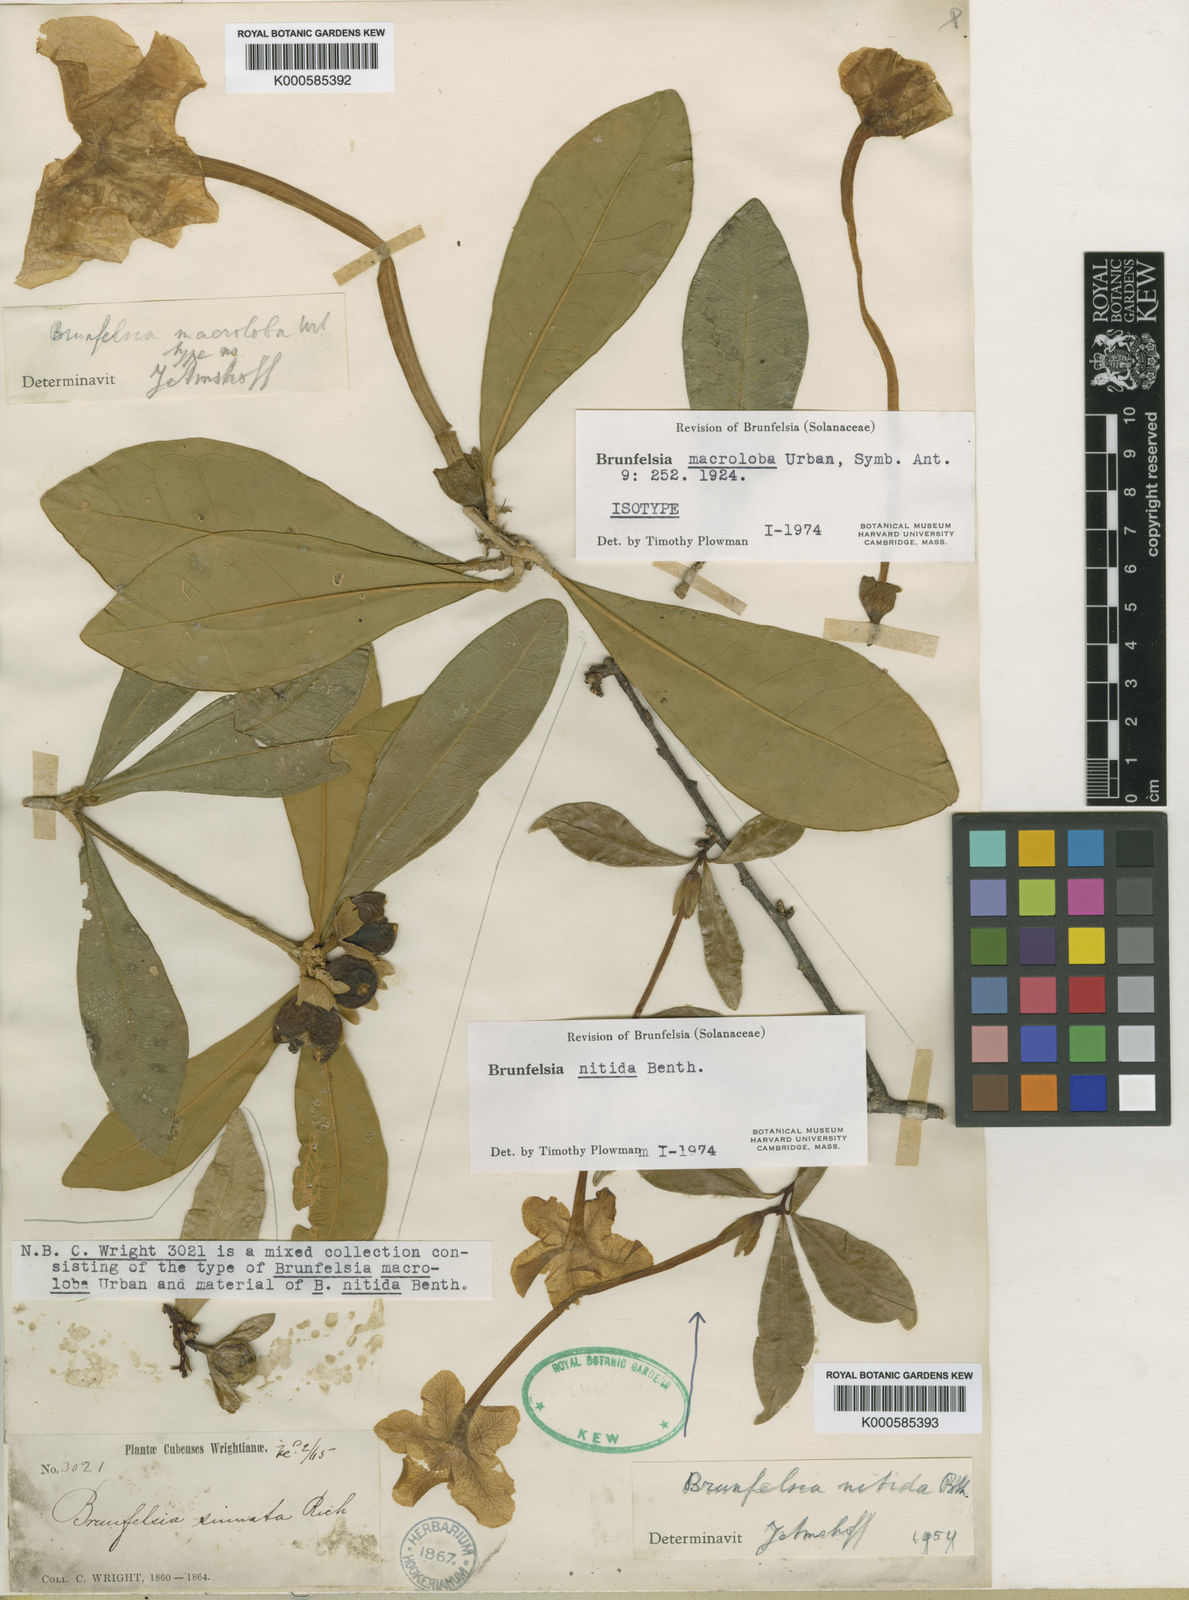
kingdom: Plantae
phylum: Tracheophyta
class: Magnoliopsida
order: Solanales
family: Solanaceae
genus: Brunfelsia
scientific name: Brunfelsia macroloba
